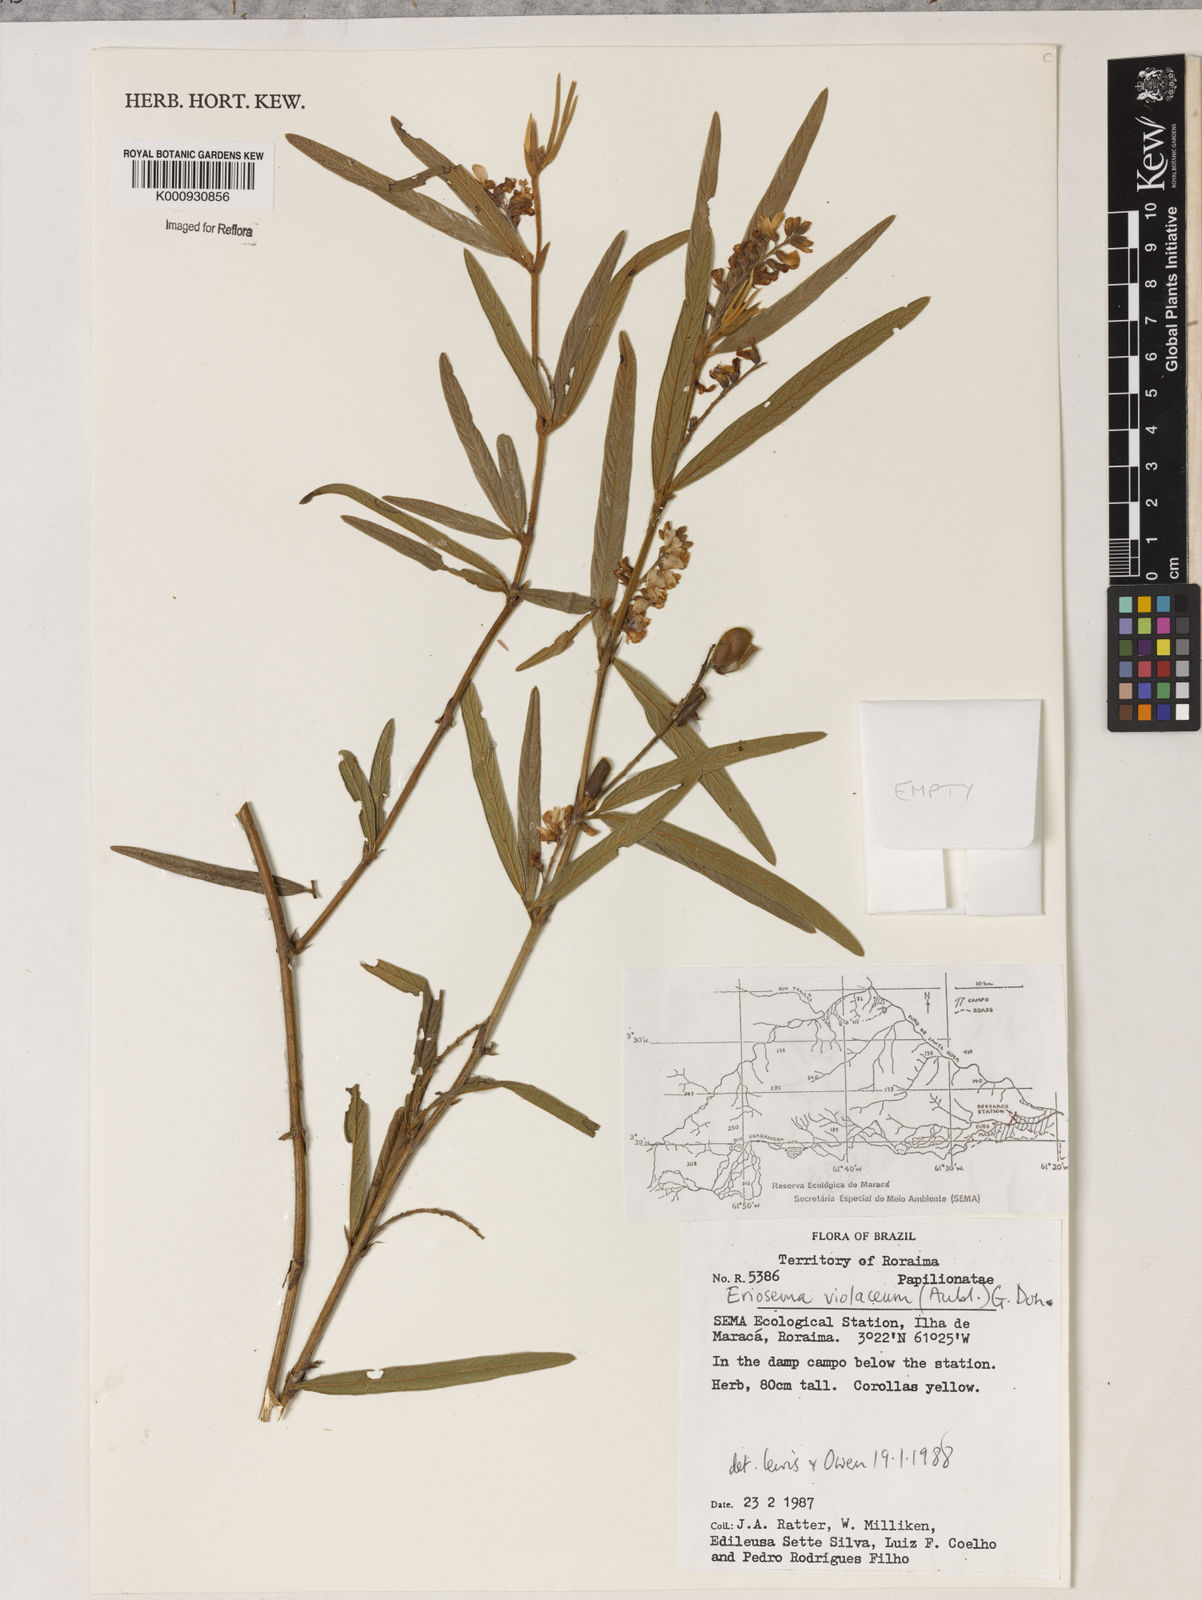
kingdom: Plantae
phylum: Tracheophyta
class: Magnoliopsida
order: Fabales
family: Fabaceae
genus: Eriosema
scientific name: Eriosema violaceum
